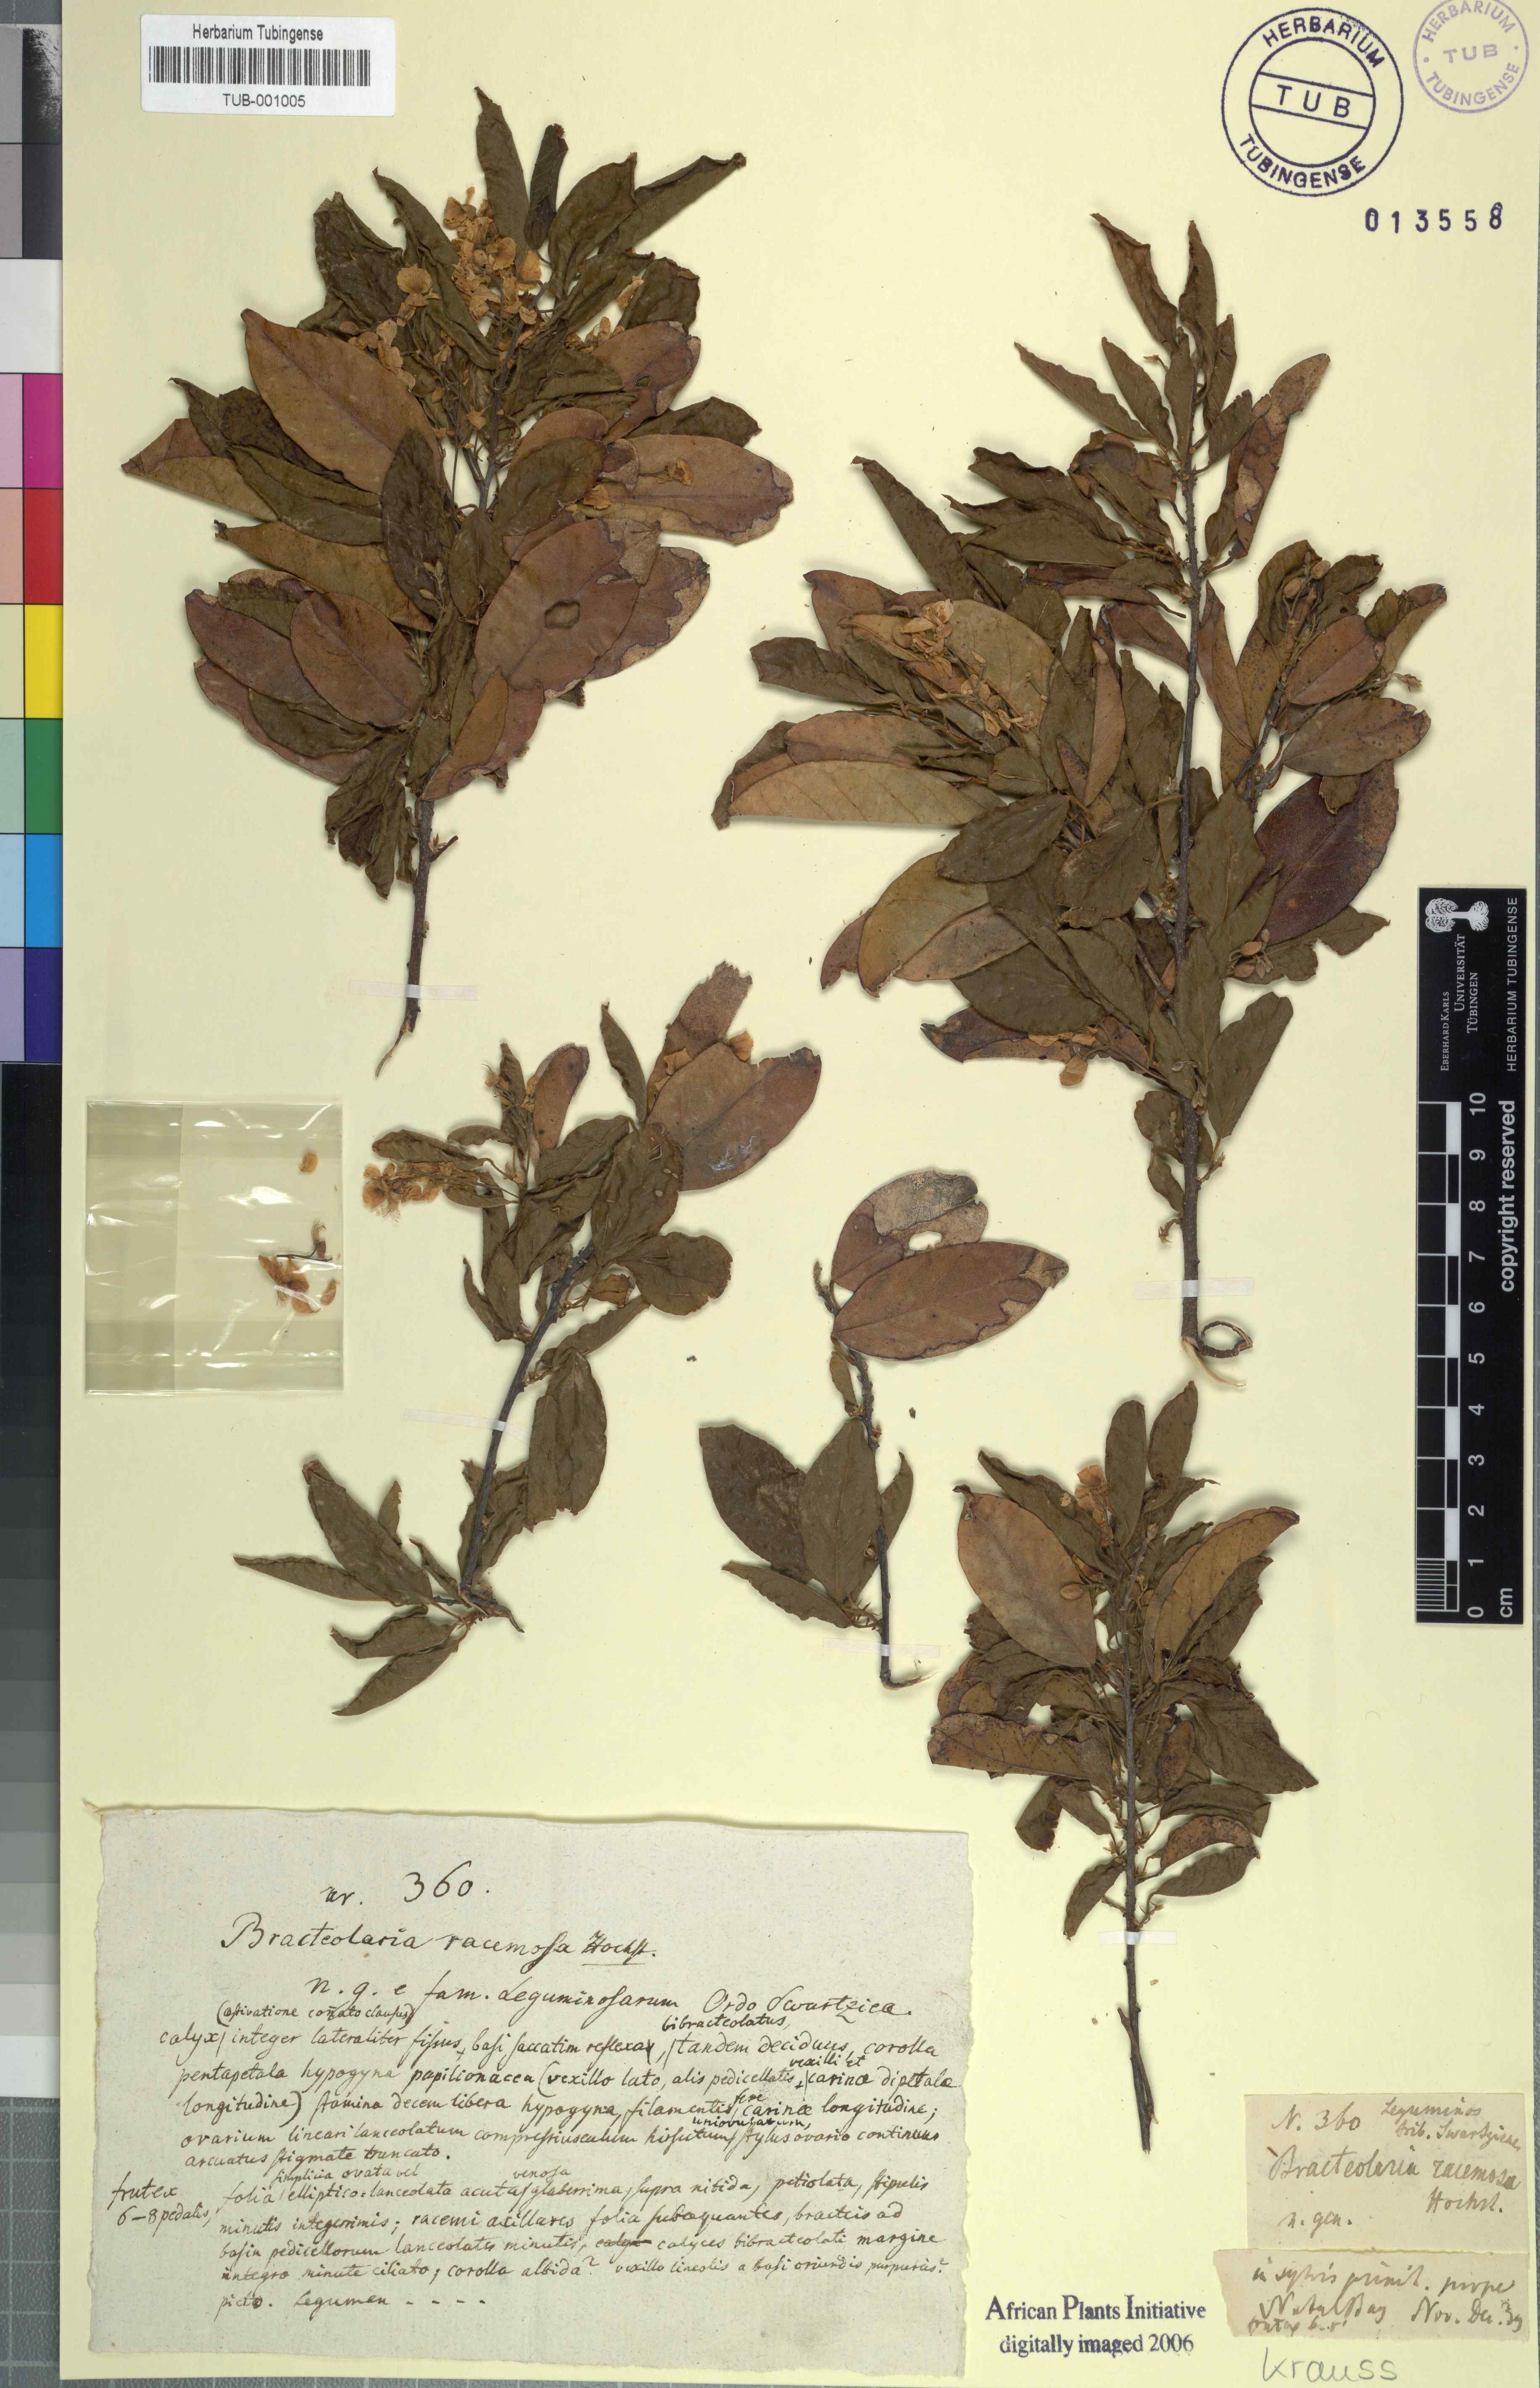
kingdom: Plantae
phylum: Tracheophyta
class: Magnoliopsida
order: Fabales
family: Fabaceae
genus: Bracteolaria
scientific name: Bracteolaria racemosa
